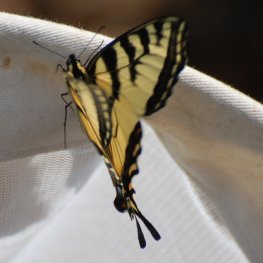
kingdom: Animalia
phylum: Arthropoda
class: Insecta
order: Lepidoptera
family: Papilionidae
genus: Pterourus
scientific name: Pterourus canadensis
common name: Canadian Tiger Swallowtail
